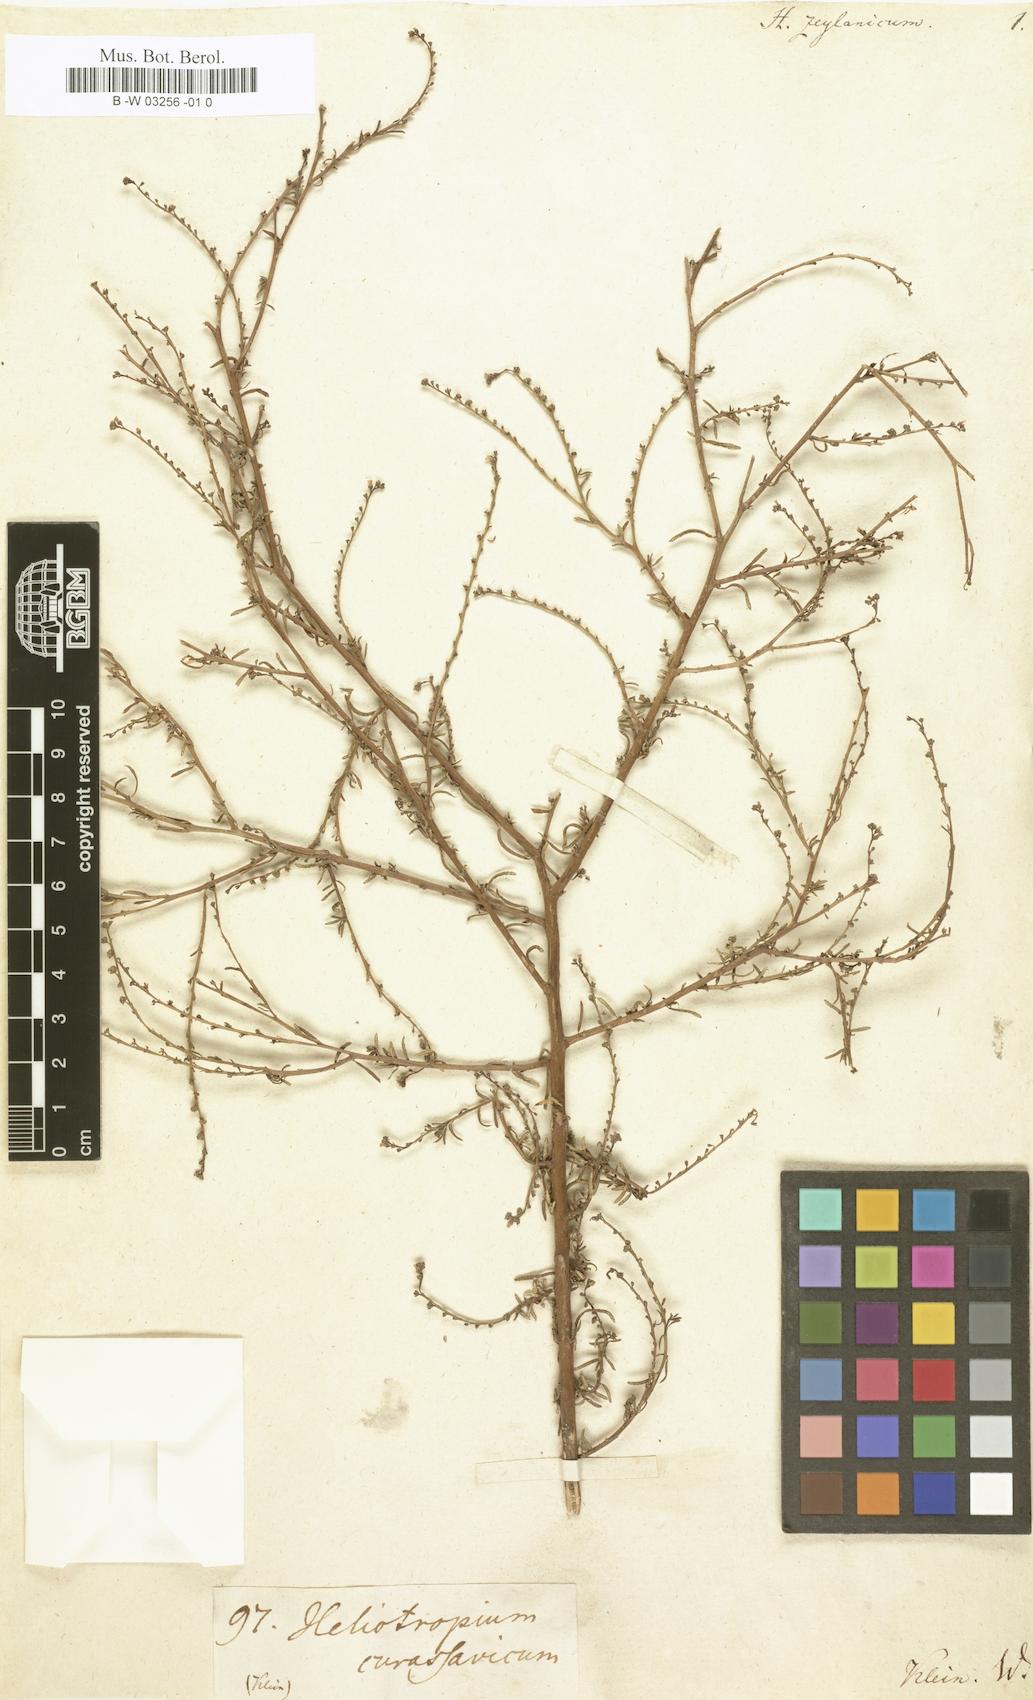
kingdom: Plantae
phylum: Tracheophyta
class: Magnoliopsida
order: Boraginales
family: Heliotropiaceae
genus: Heliotropium
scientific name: Heliotropium zeylanicum
